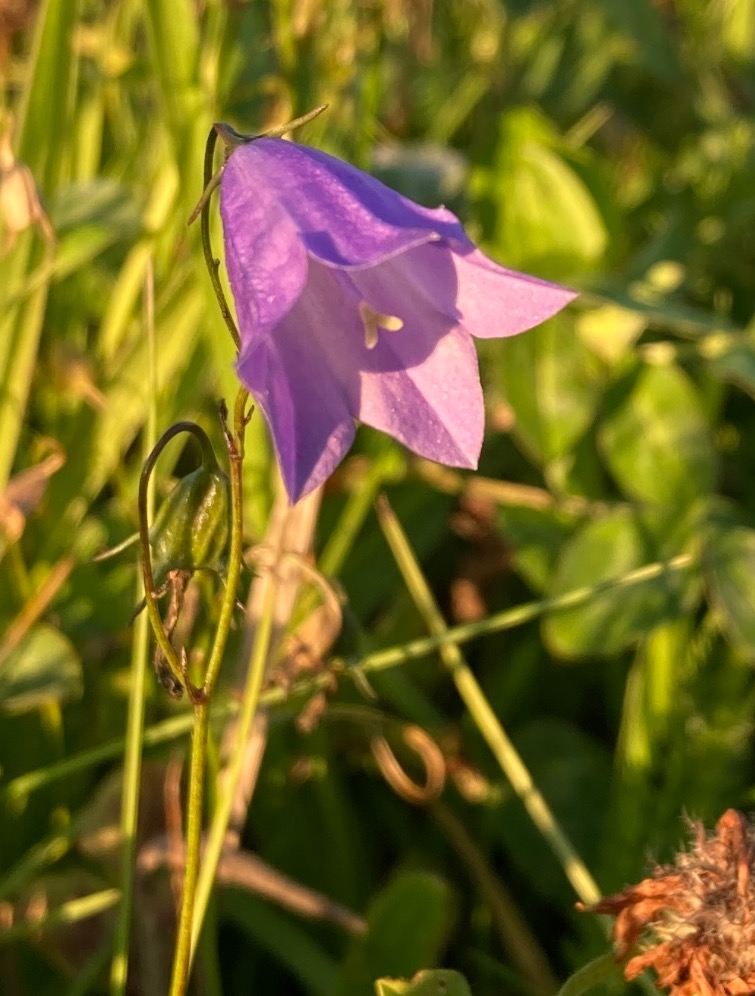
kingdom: Plantae
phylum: Tracheophyta
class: Magnoliopsida
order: Asterales
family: Campanulaceae
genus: Campanula
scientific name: Campanula rotundifolia
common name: Liden klokke
